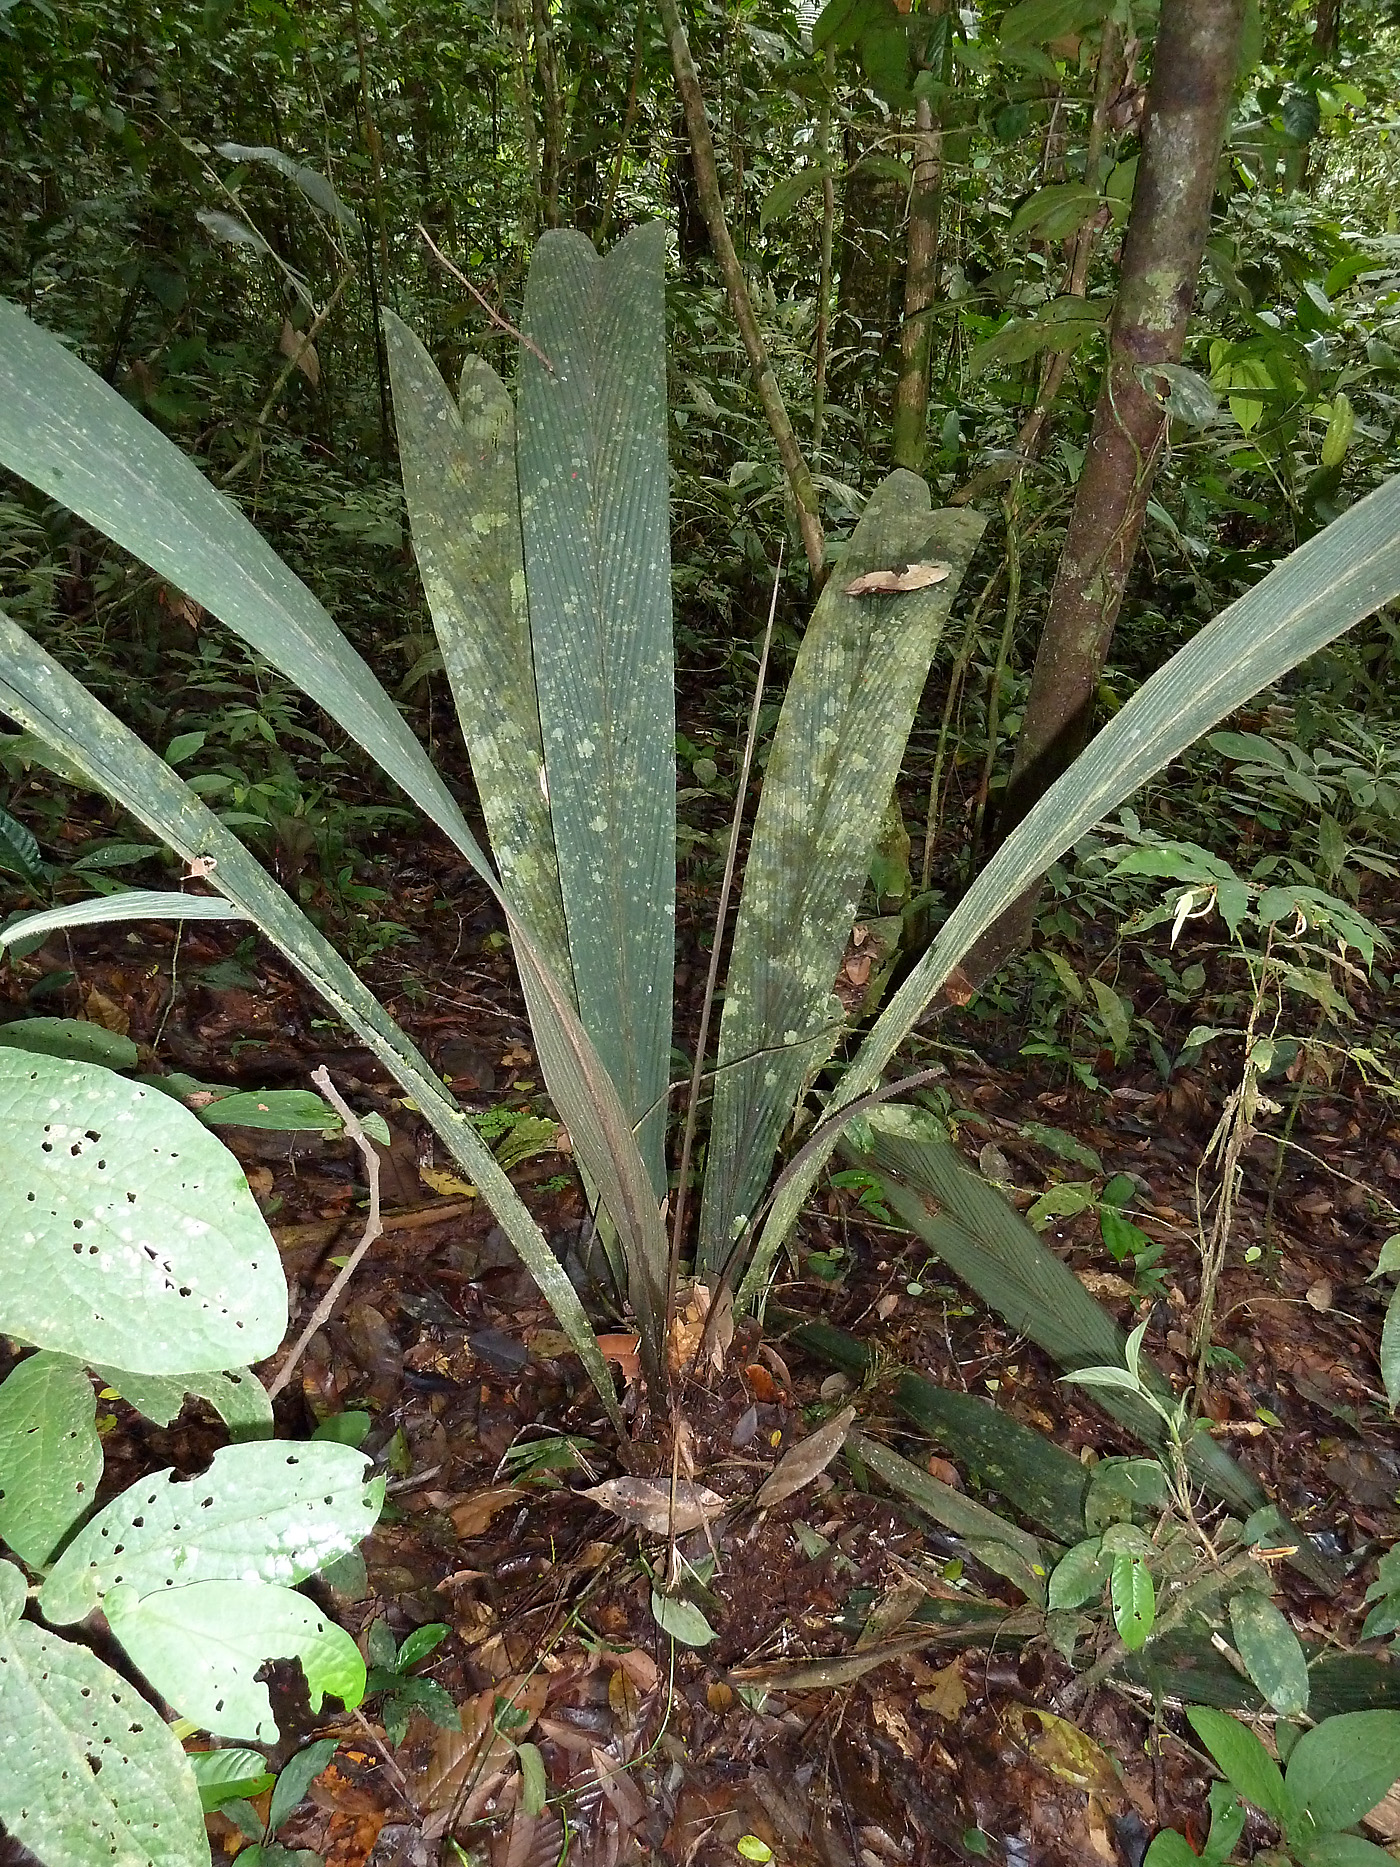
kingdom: Plantae
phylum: Tracheophyta
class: Liliopsida
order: Arecales
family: Arecaceae
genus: Geonoma
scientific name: Geonoma macrostachys
